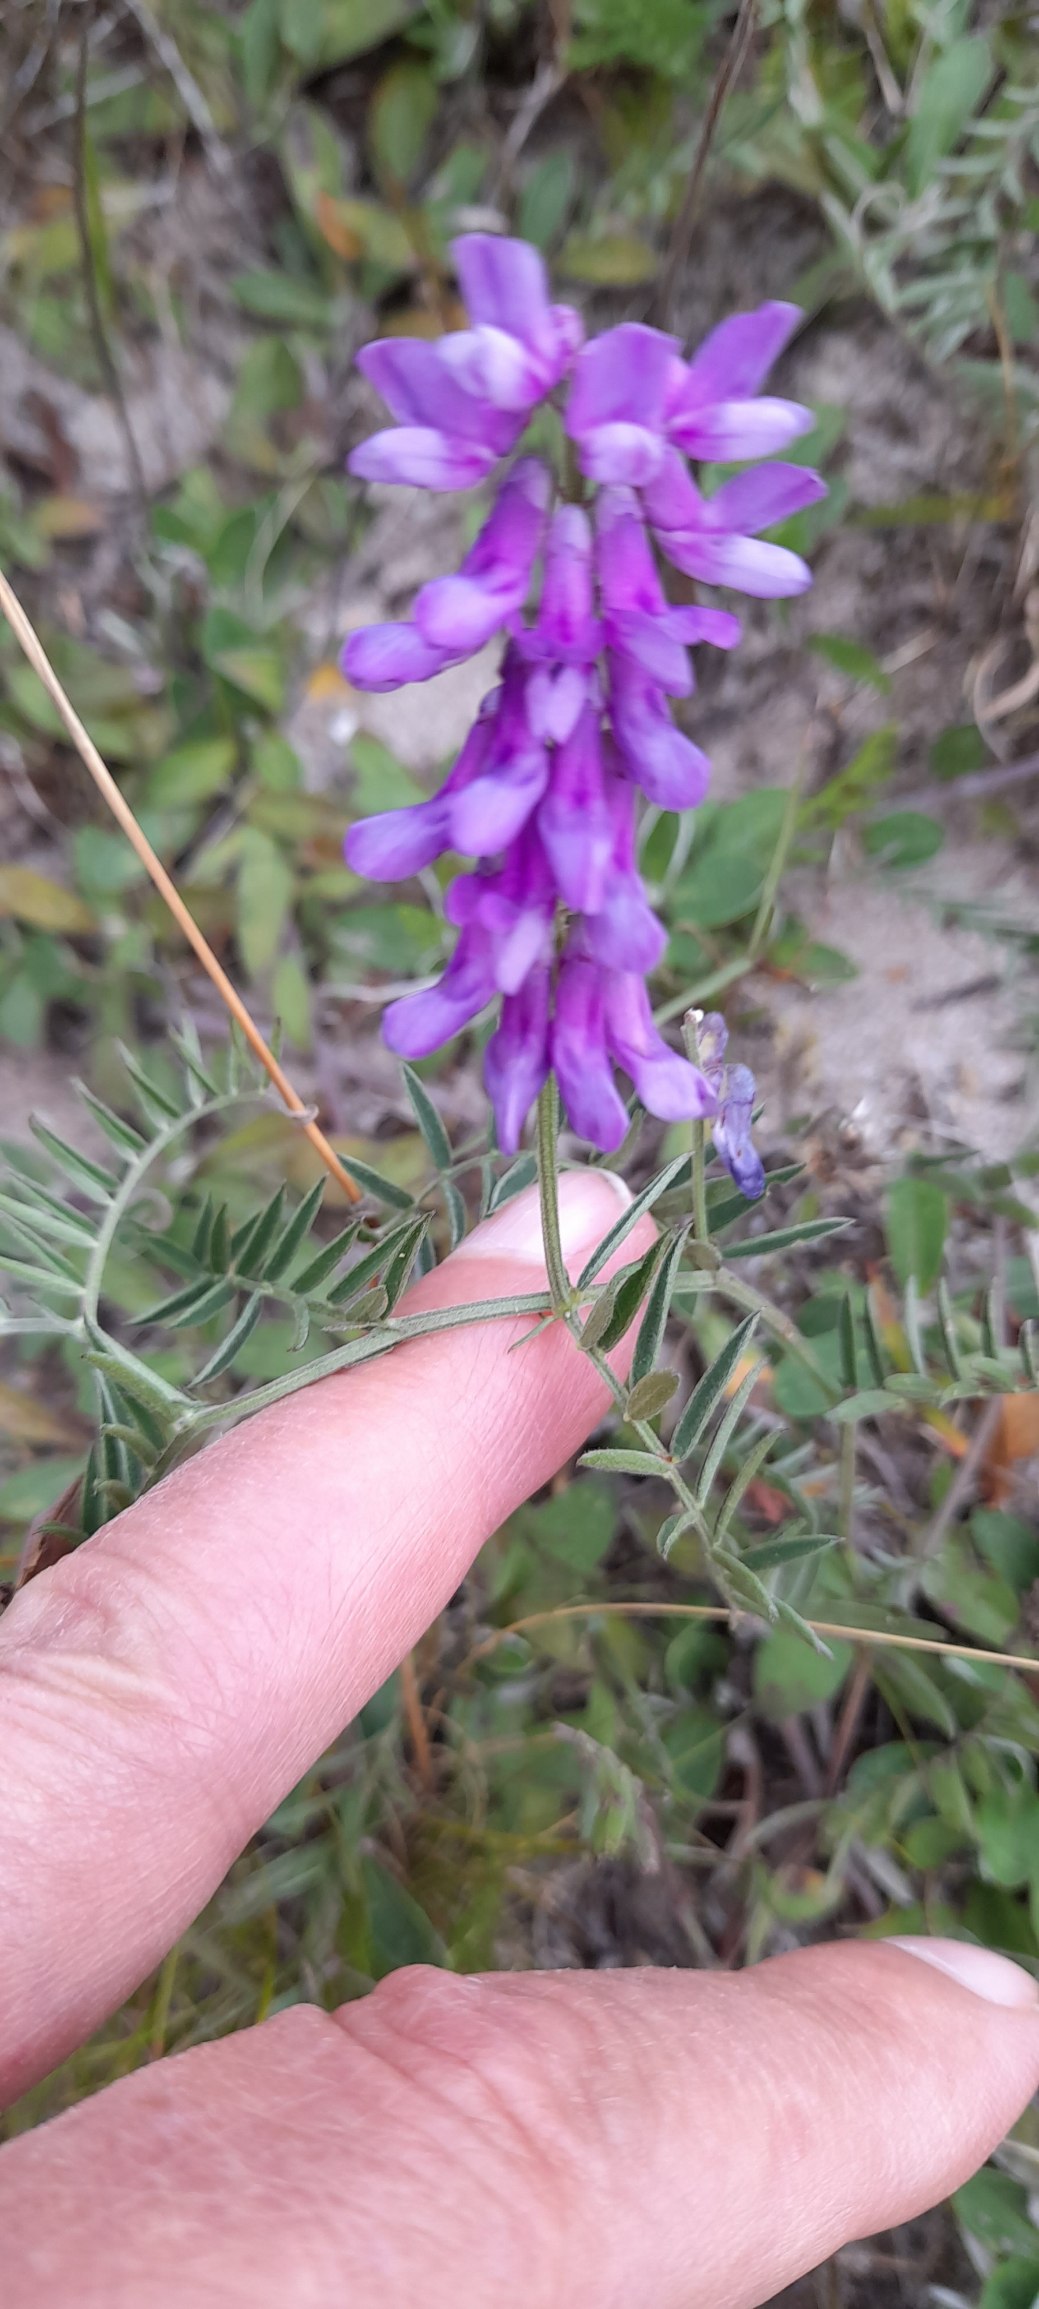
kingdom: Plantae
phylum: Tracheophyta
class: Magnoliopsida
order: Fabales
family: Fabaceae
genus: Vicia
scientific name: Vicia cracca
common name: Muse-vikke
